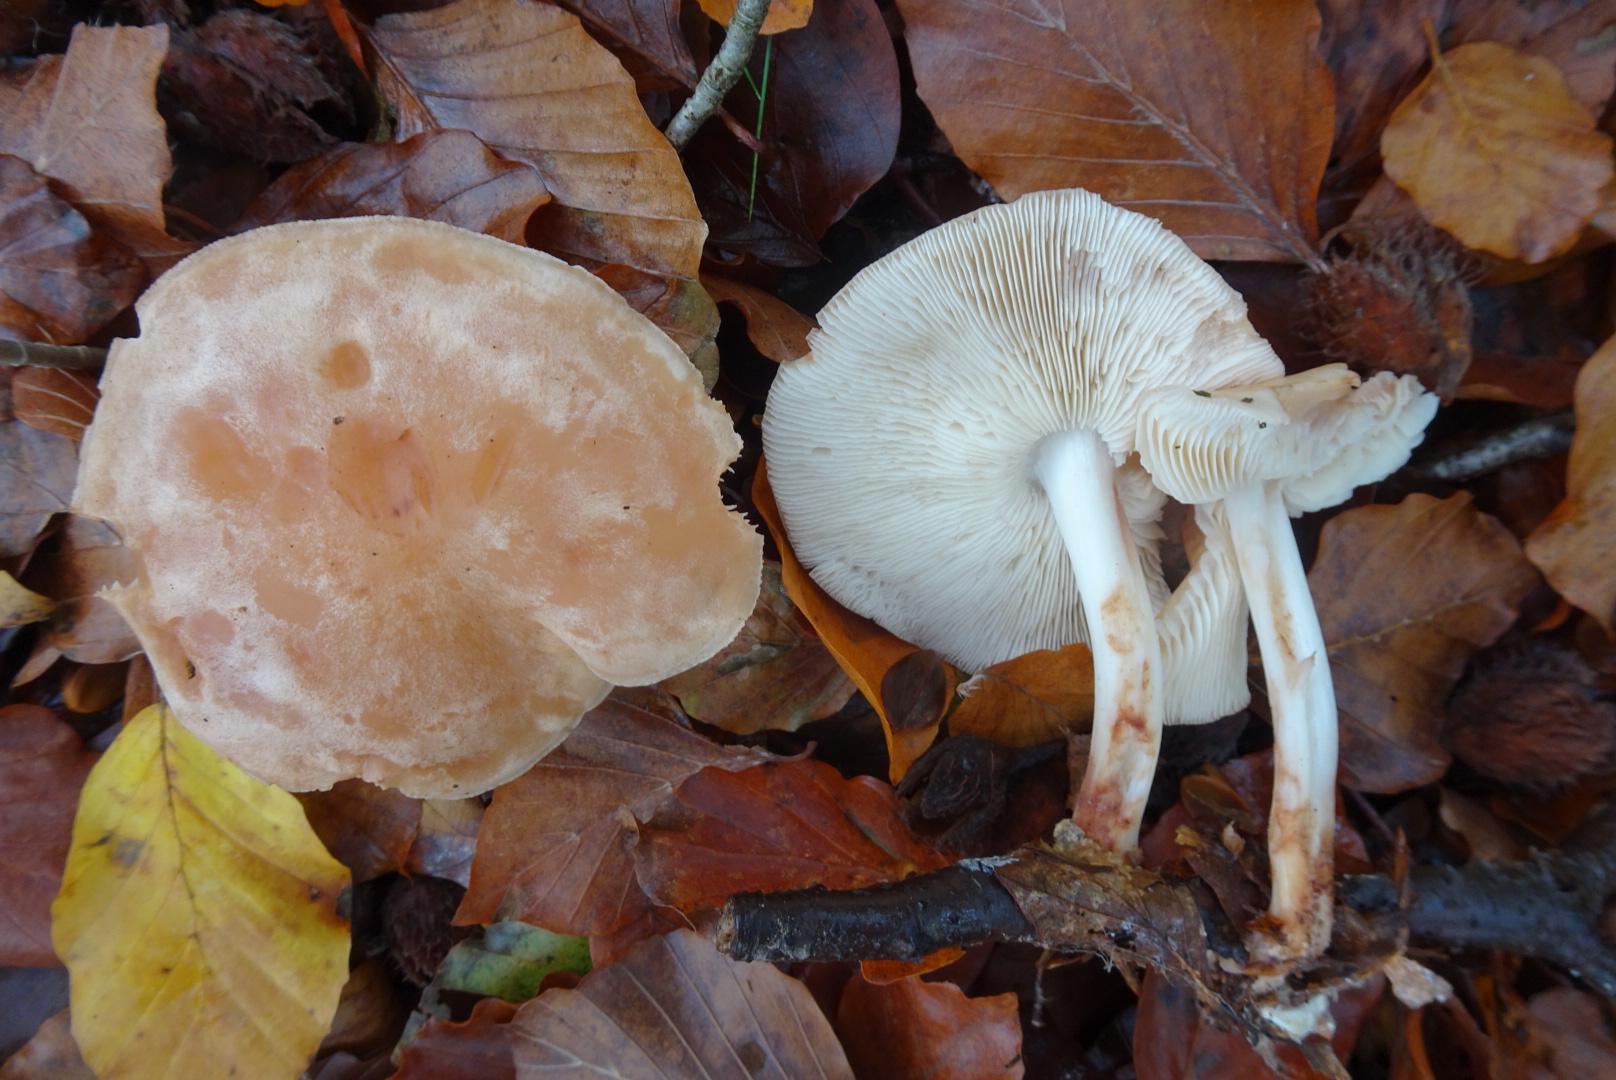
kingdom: Fungi
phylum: Basidiomycota
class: Agaricomycetes
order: Agaricales
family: Omphalotaceae
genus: Rhodocollybia
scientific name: Rhodocollybia maculata
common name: plettet fladhat
